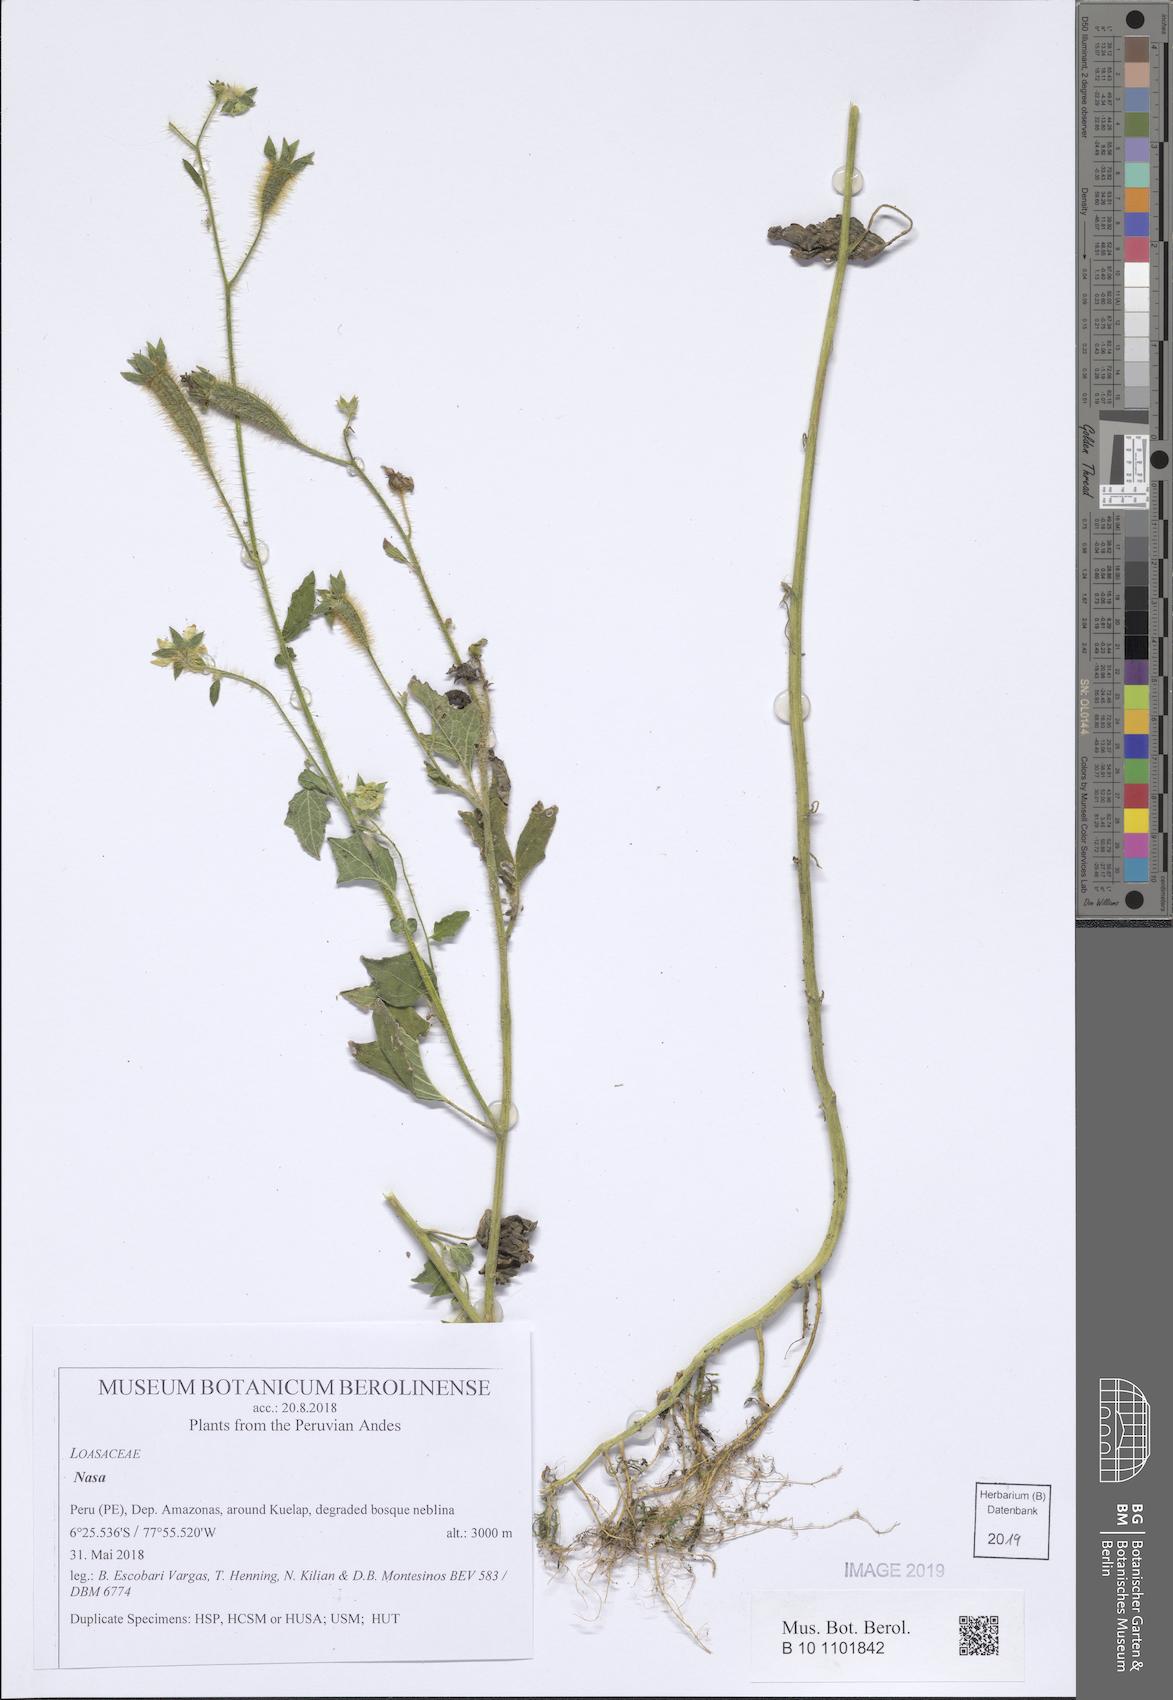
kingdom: Plantae
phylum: Tracheophyta
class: Magnoliopsida
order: Cornales
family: Loasaceae
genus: Nasa
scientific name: Nasa kuelapensis
